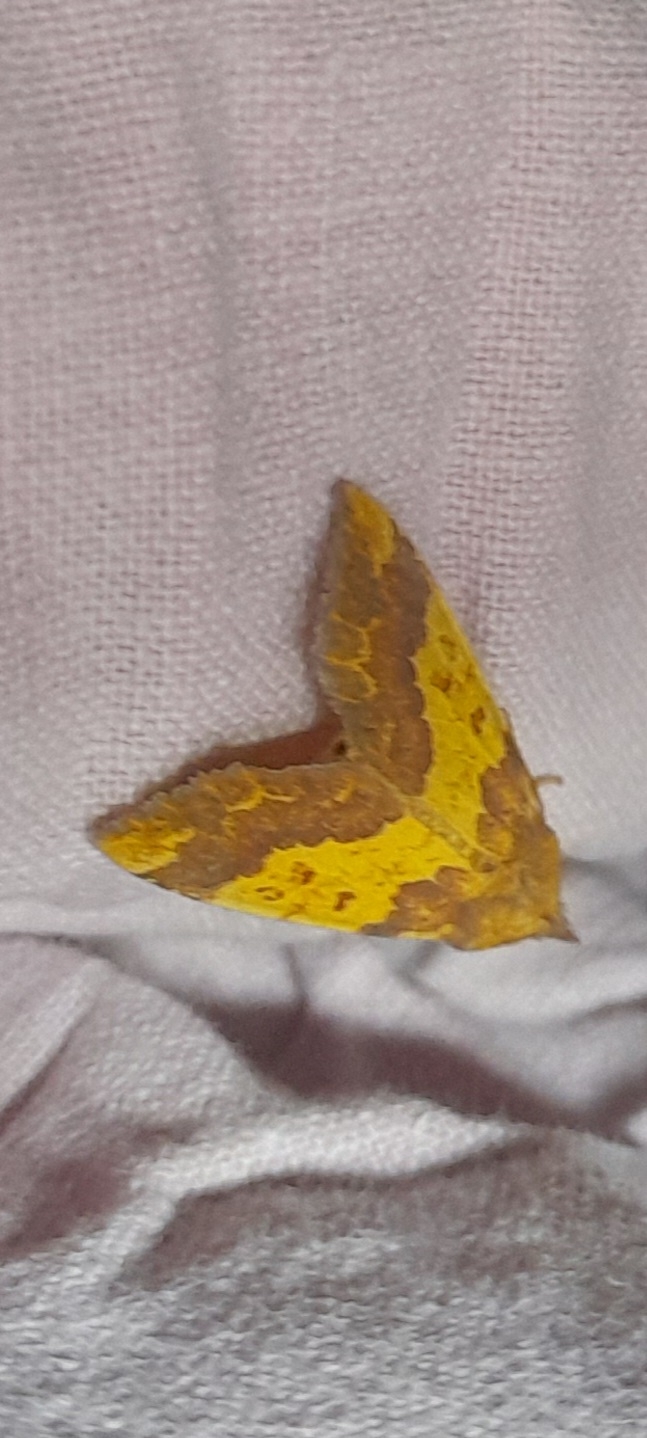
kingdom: Animalia
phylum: Arthropoda
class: Insecta
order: Lepidoptera
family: Noctuidae
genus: Tiliacea
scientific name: Tiliacea aurago
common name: Guldugle
